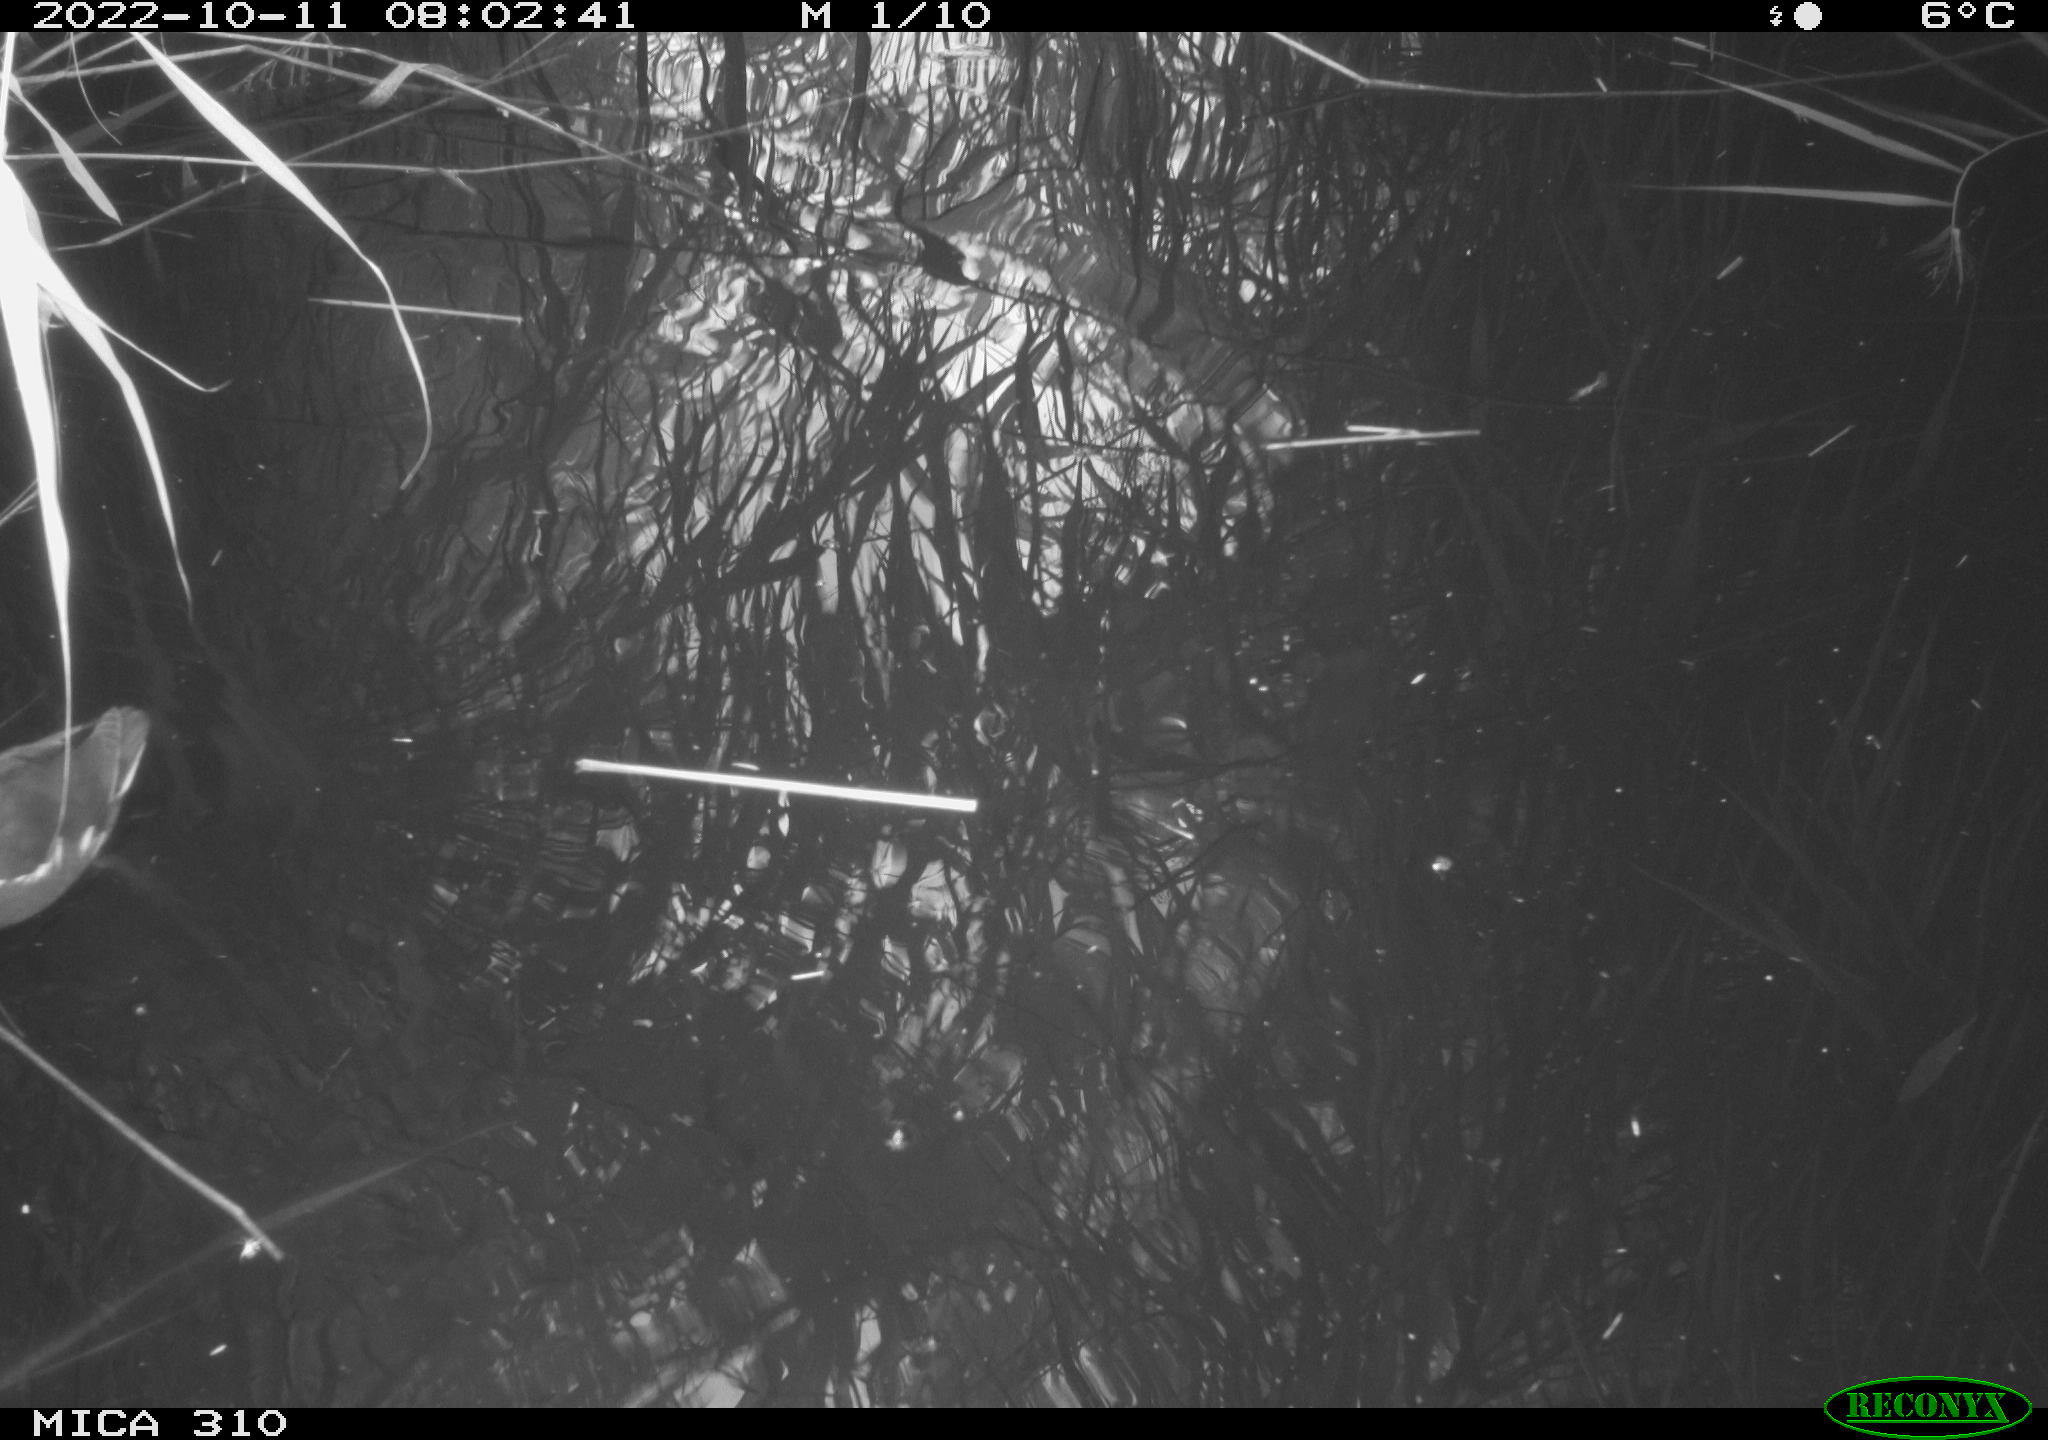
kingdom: Animalia
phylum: Chordata
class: Aves
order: Gruiformes
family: Rallidae
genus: Gallinula
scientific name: Gallinula chloropus
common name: Common moorhen
